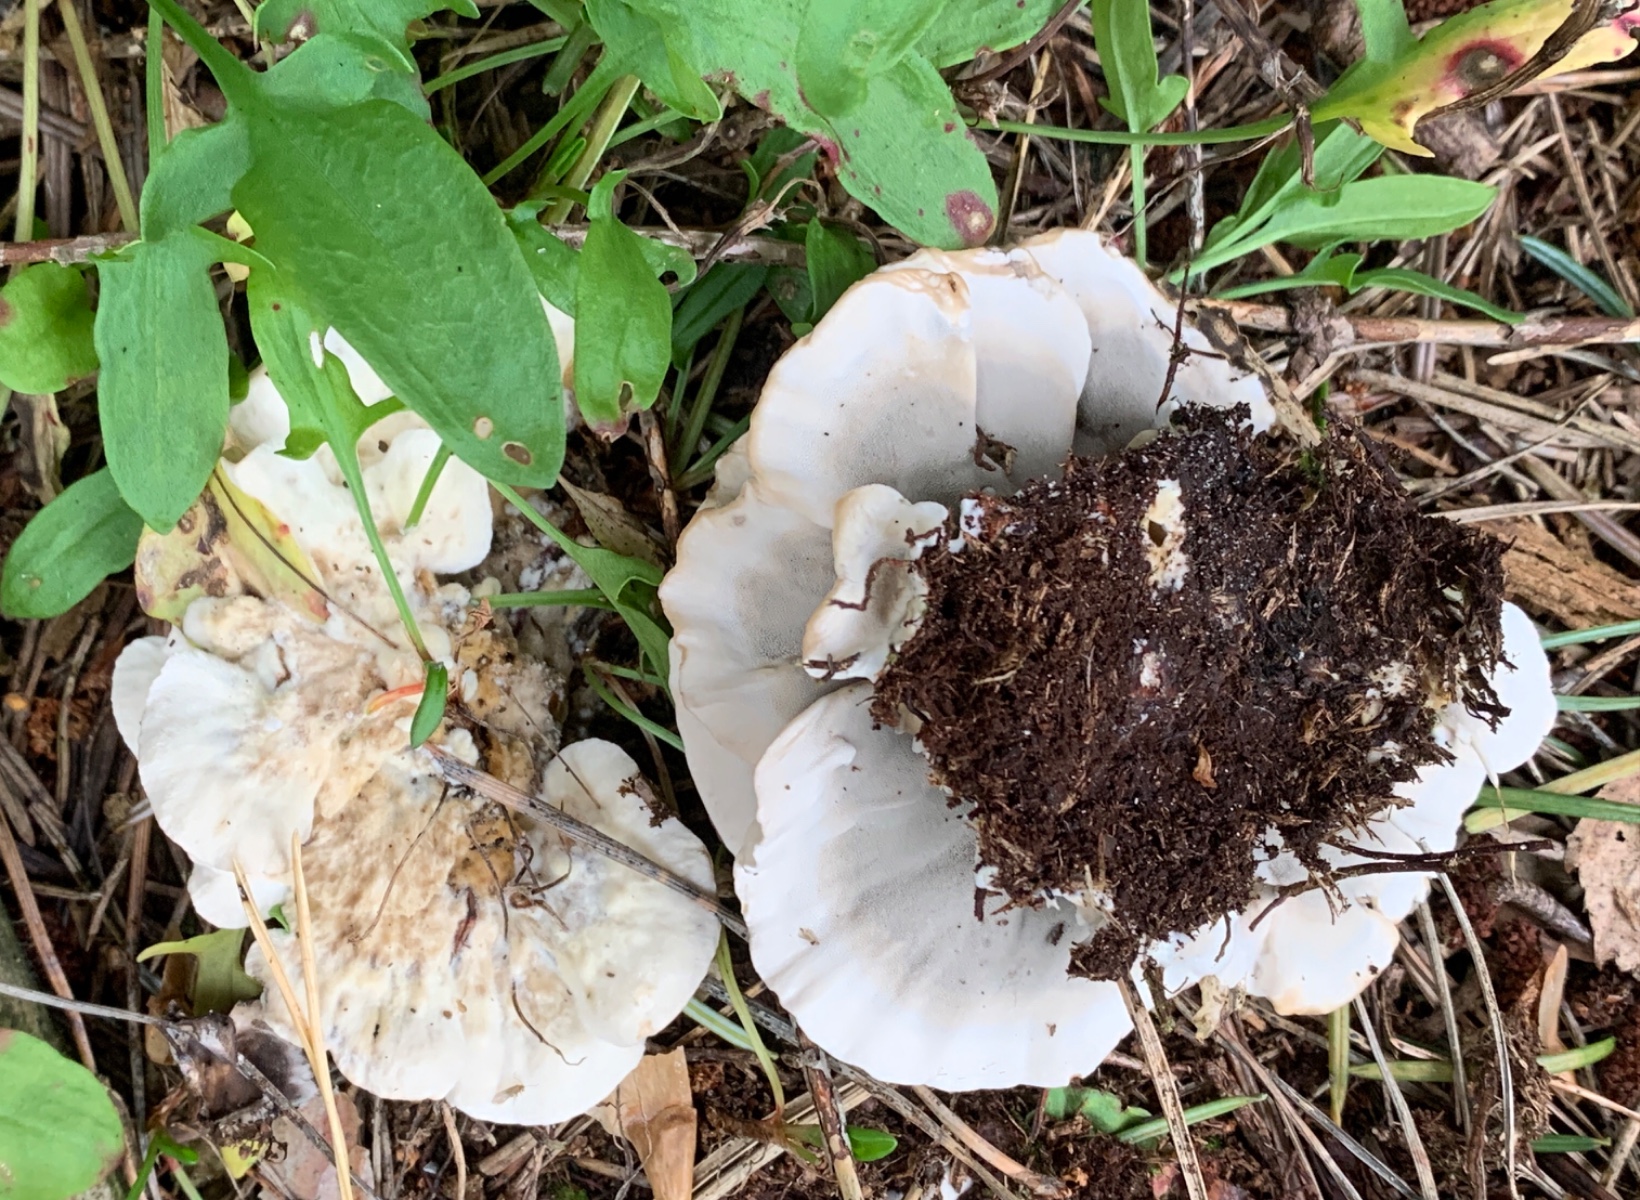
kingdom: Fungi
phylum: Basidiomycota
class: Agaricomycetes
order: Polyporales
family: Phanerochaetaceae
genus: Bjerkandera
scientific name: Bjerkandera adusta
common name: sveden sodporesvamp
